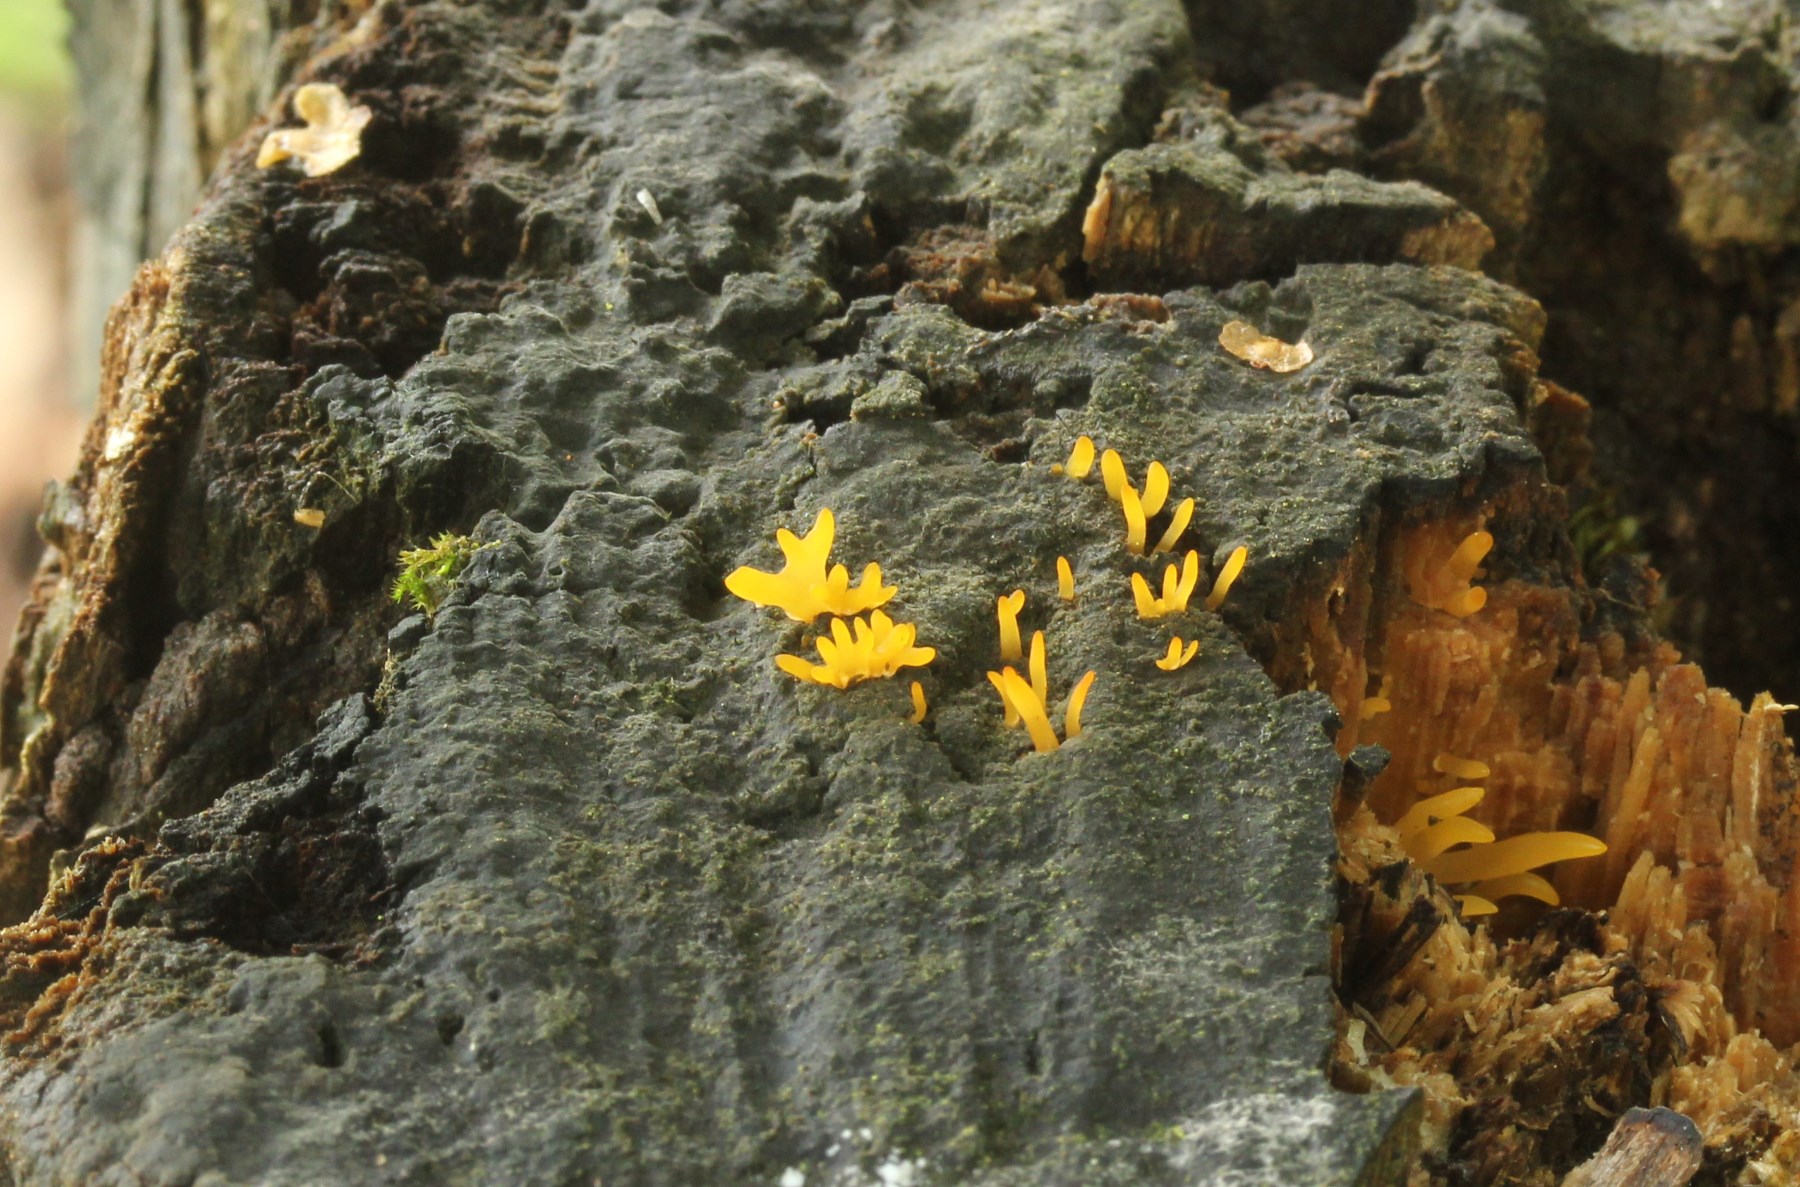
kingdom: Fungi
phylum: Basidiomycota
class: Dacrymycetes
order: Dacrymycetales
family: Dacrymycetaceae
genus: Calocera
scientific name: Calocera cornea
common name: liden guldgaffel
